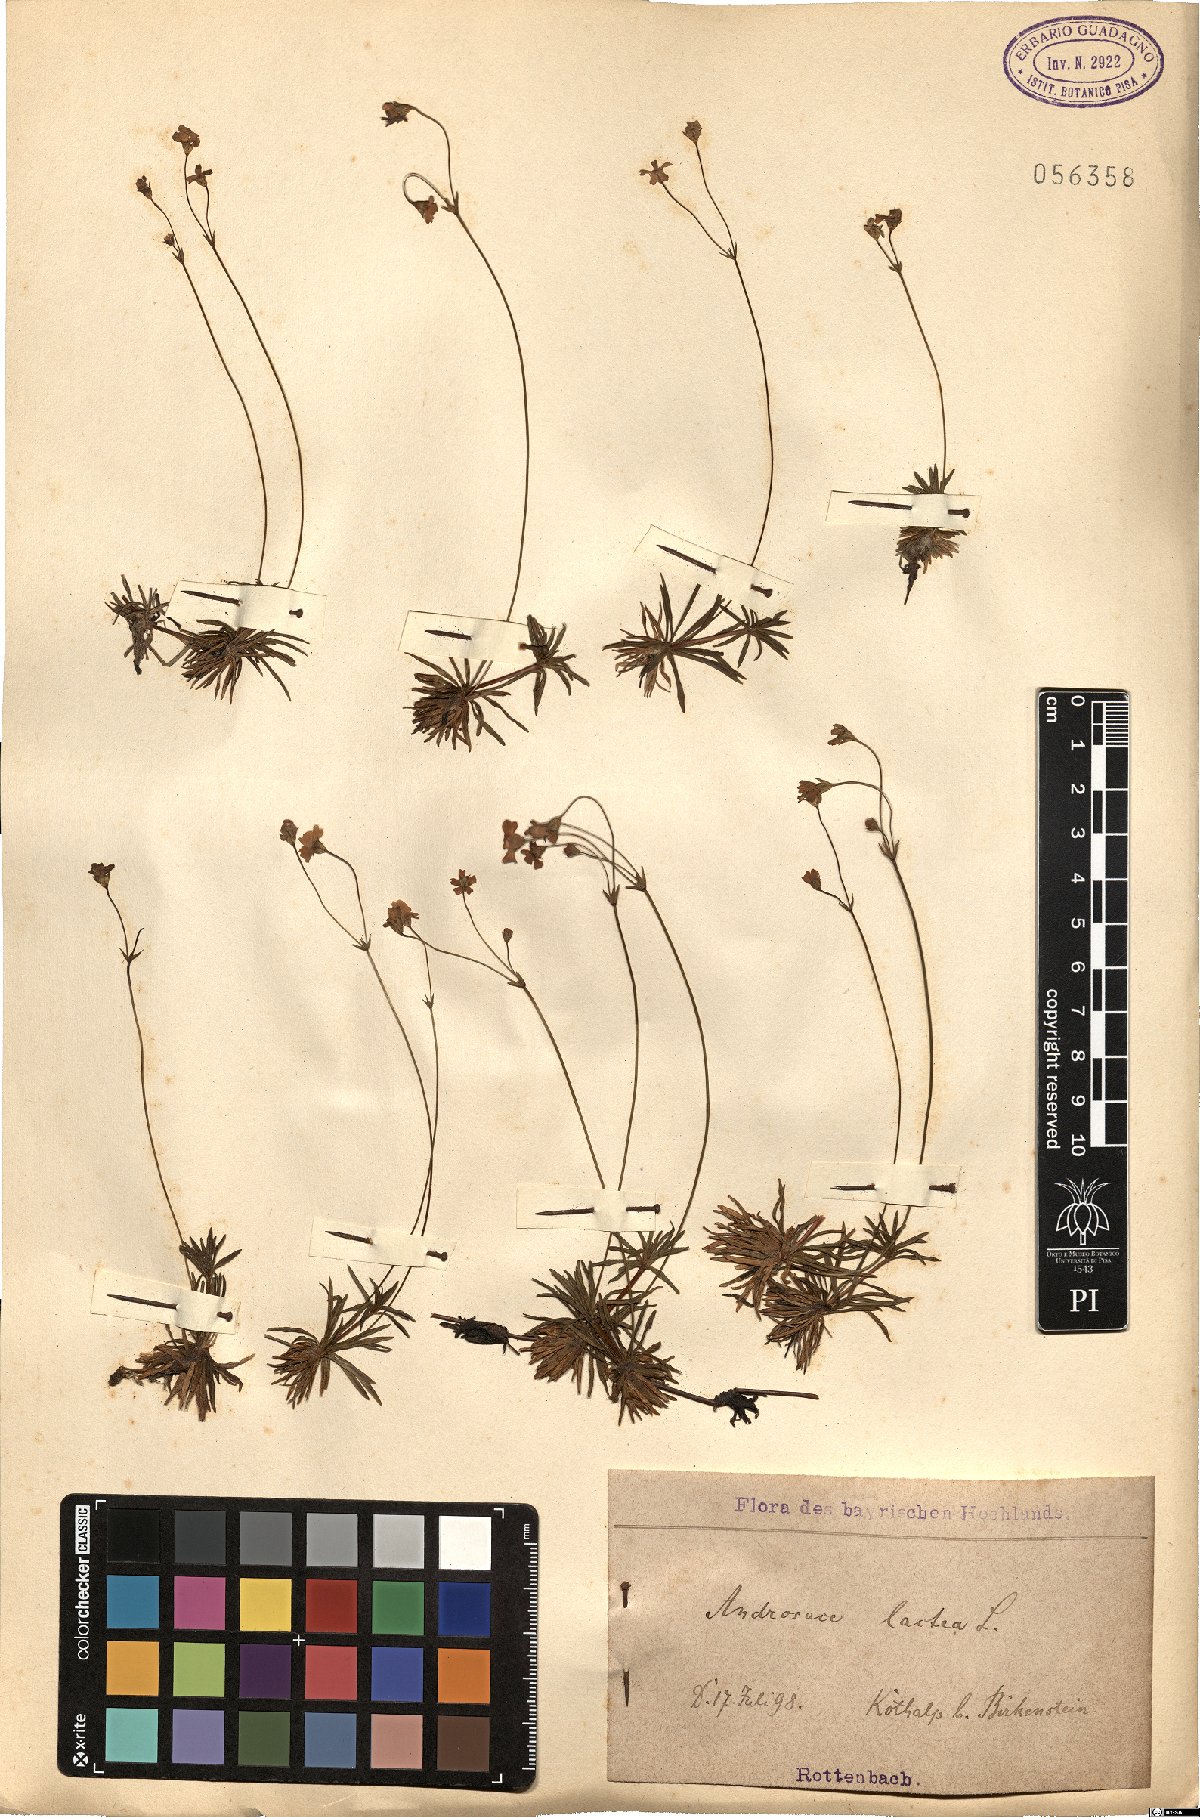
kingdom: Plantae
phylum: Tracheophyta
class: Magnoliopsida
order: Ericales
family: Primulaceae
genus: Androsace
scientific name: Androsace lactea
